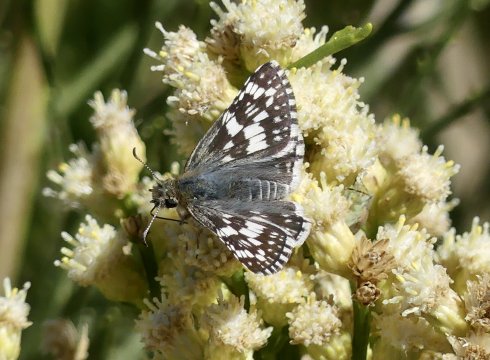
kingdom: Animalia
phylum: Arthropoda
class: Insecta
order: Lepidoptera
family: Hesperiidae
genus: Pyrgus
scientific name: Pyrgus oileus
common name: Desert Checkered-Skipper
